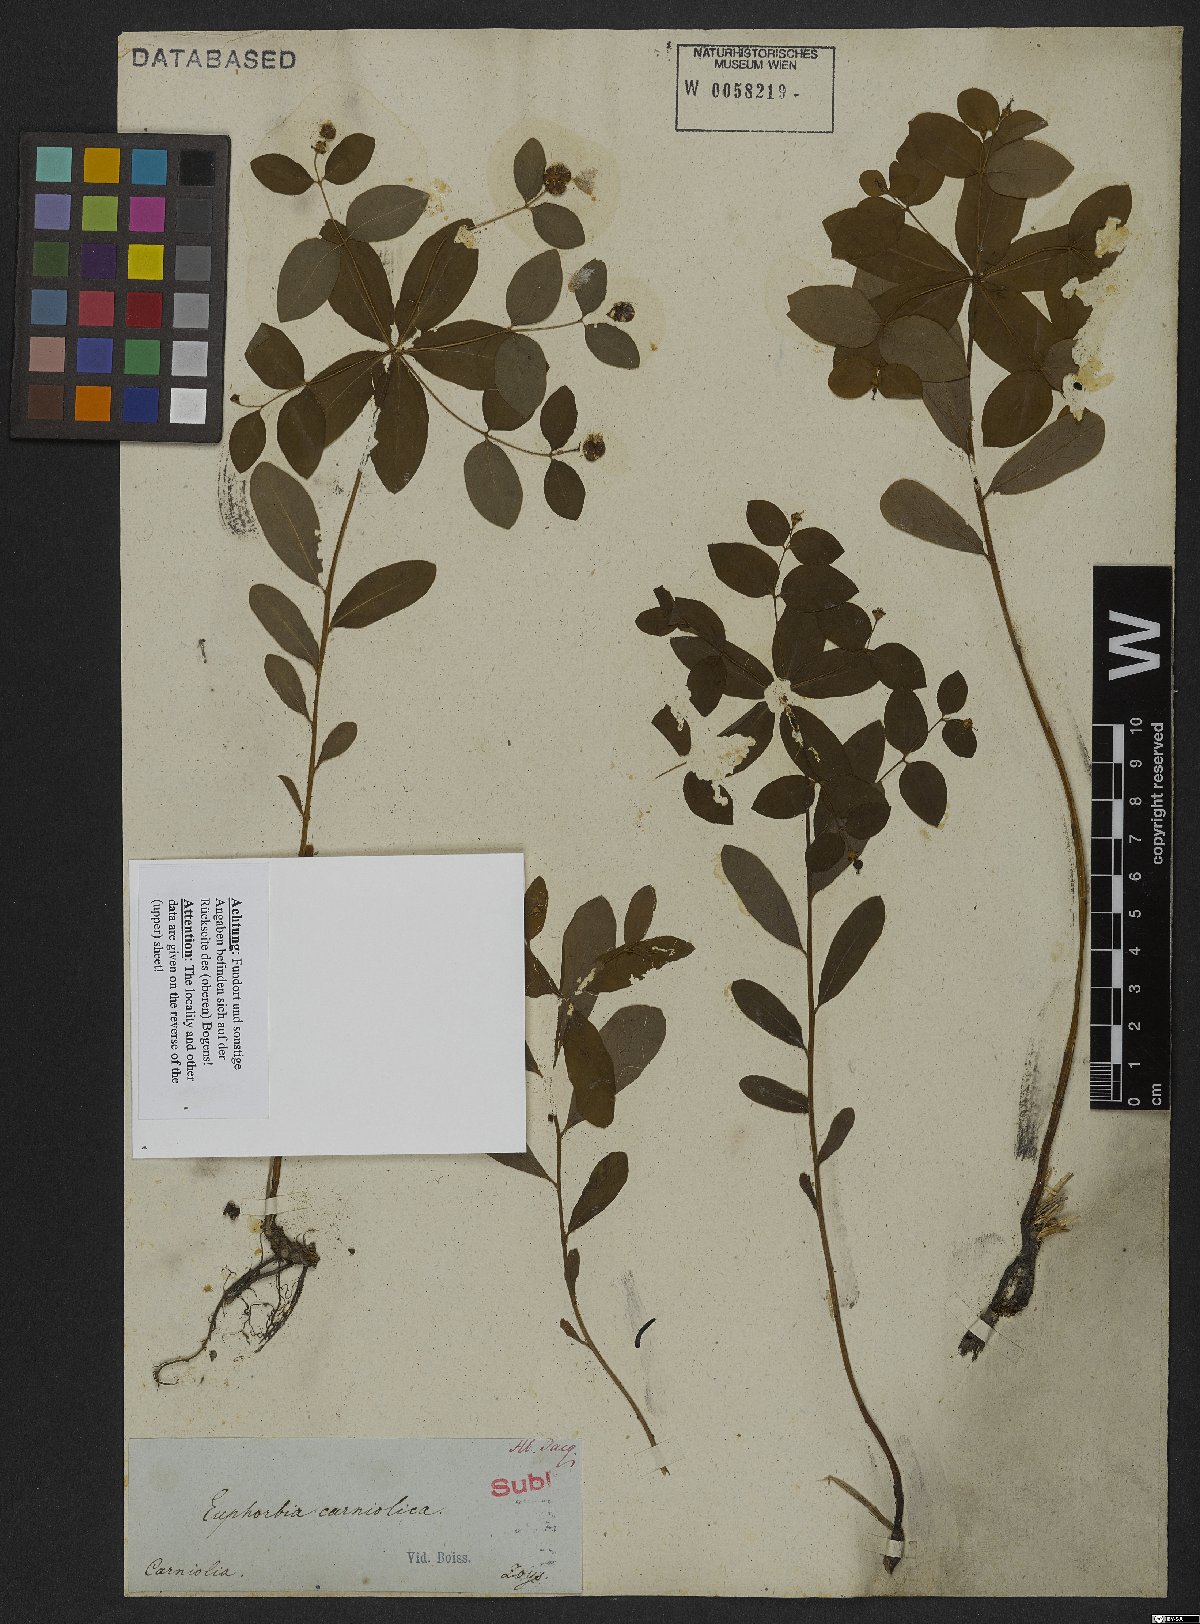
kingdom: Plantae
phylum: Tracheophyta
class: Magnoliopsida
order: Malpighiales
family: Euphorbiaceae
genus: Euphorbia
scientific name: Euphorbia carniolica
